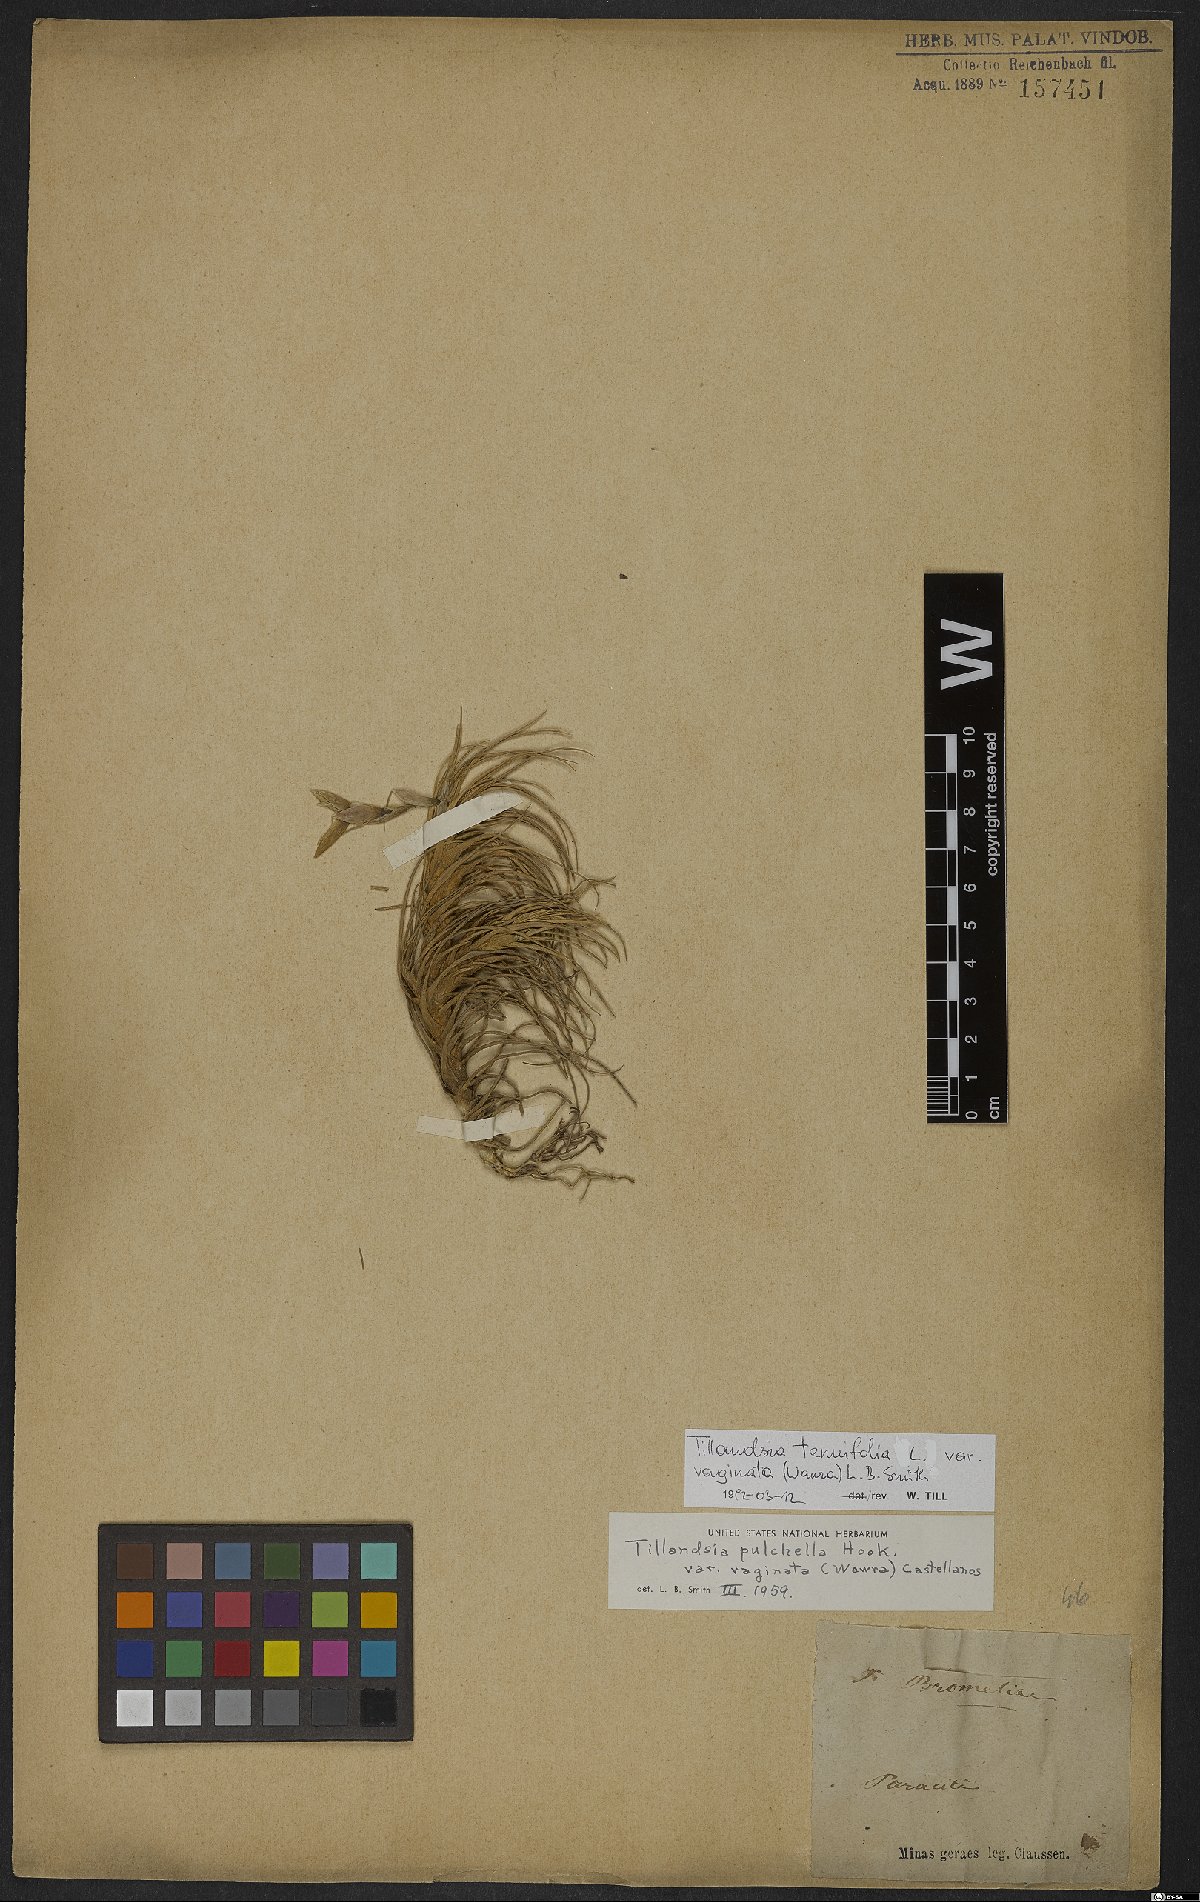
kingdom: Plantae
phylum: Tracheophyta
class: Liliopsida
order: Poales
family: Bromeliaceae
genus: Tillandsia
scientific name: Tillandsia tenuifolia
